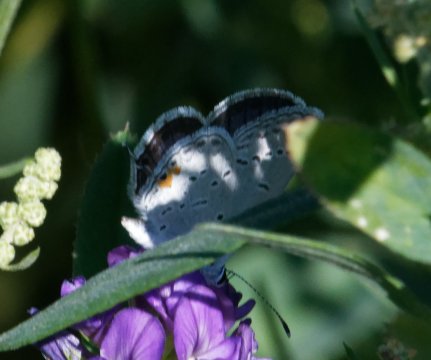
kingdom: Animalia
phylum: Arthropoda
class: Insecta
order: Lepidoptera
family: Lycaenidae
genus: Elkalyce
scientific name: Elkalyce comyntas
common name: Eastern Tailed-Blue
